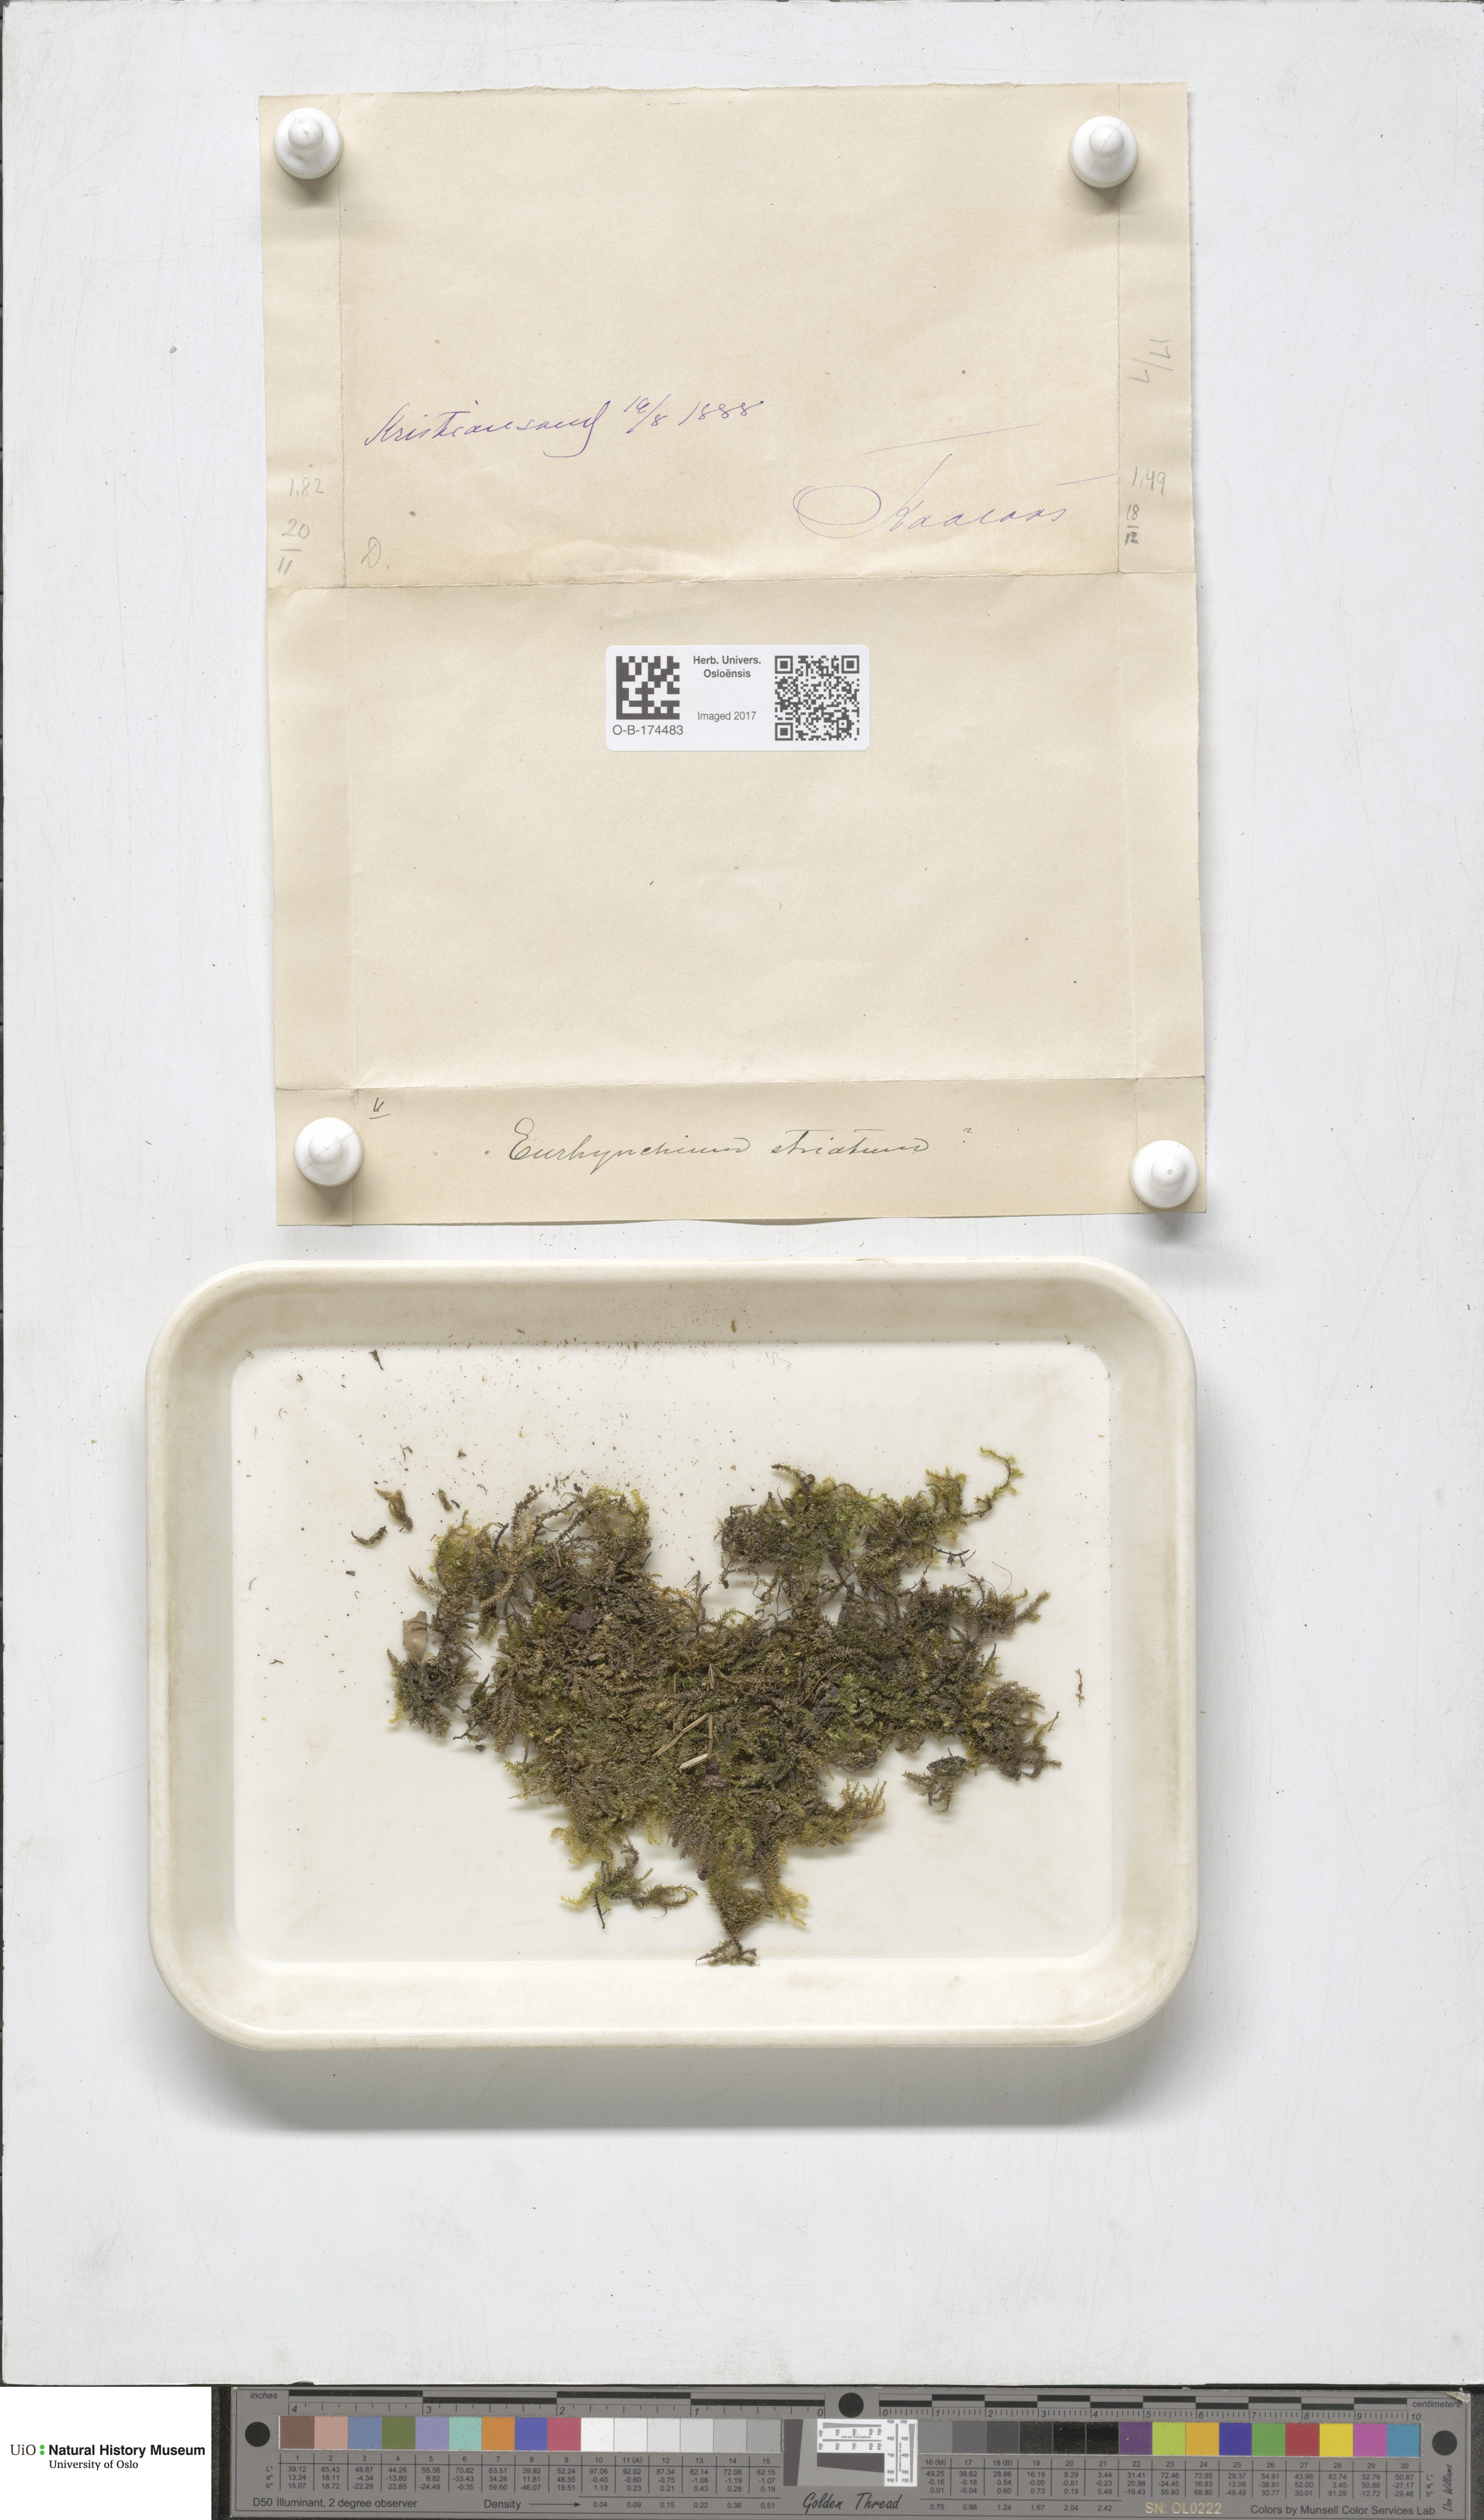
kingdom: Plantae
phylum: Bryophyta
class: Bryopsida
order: Hypnales
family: Brachytheciaceae
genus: Eurhynchium
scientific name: Eurhynchium striatum
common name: Common striated feather-moss
